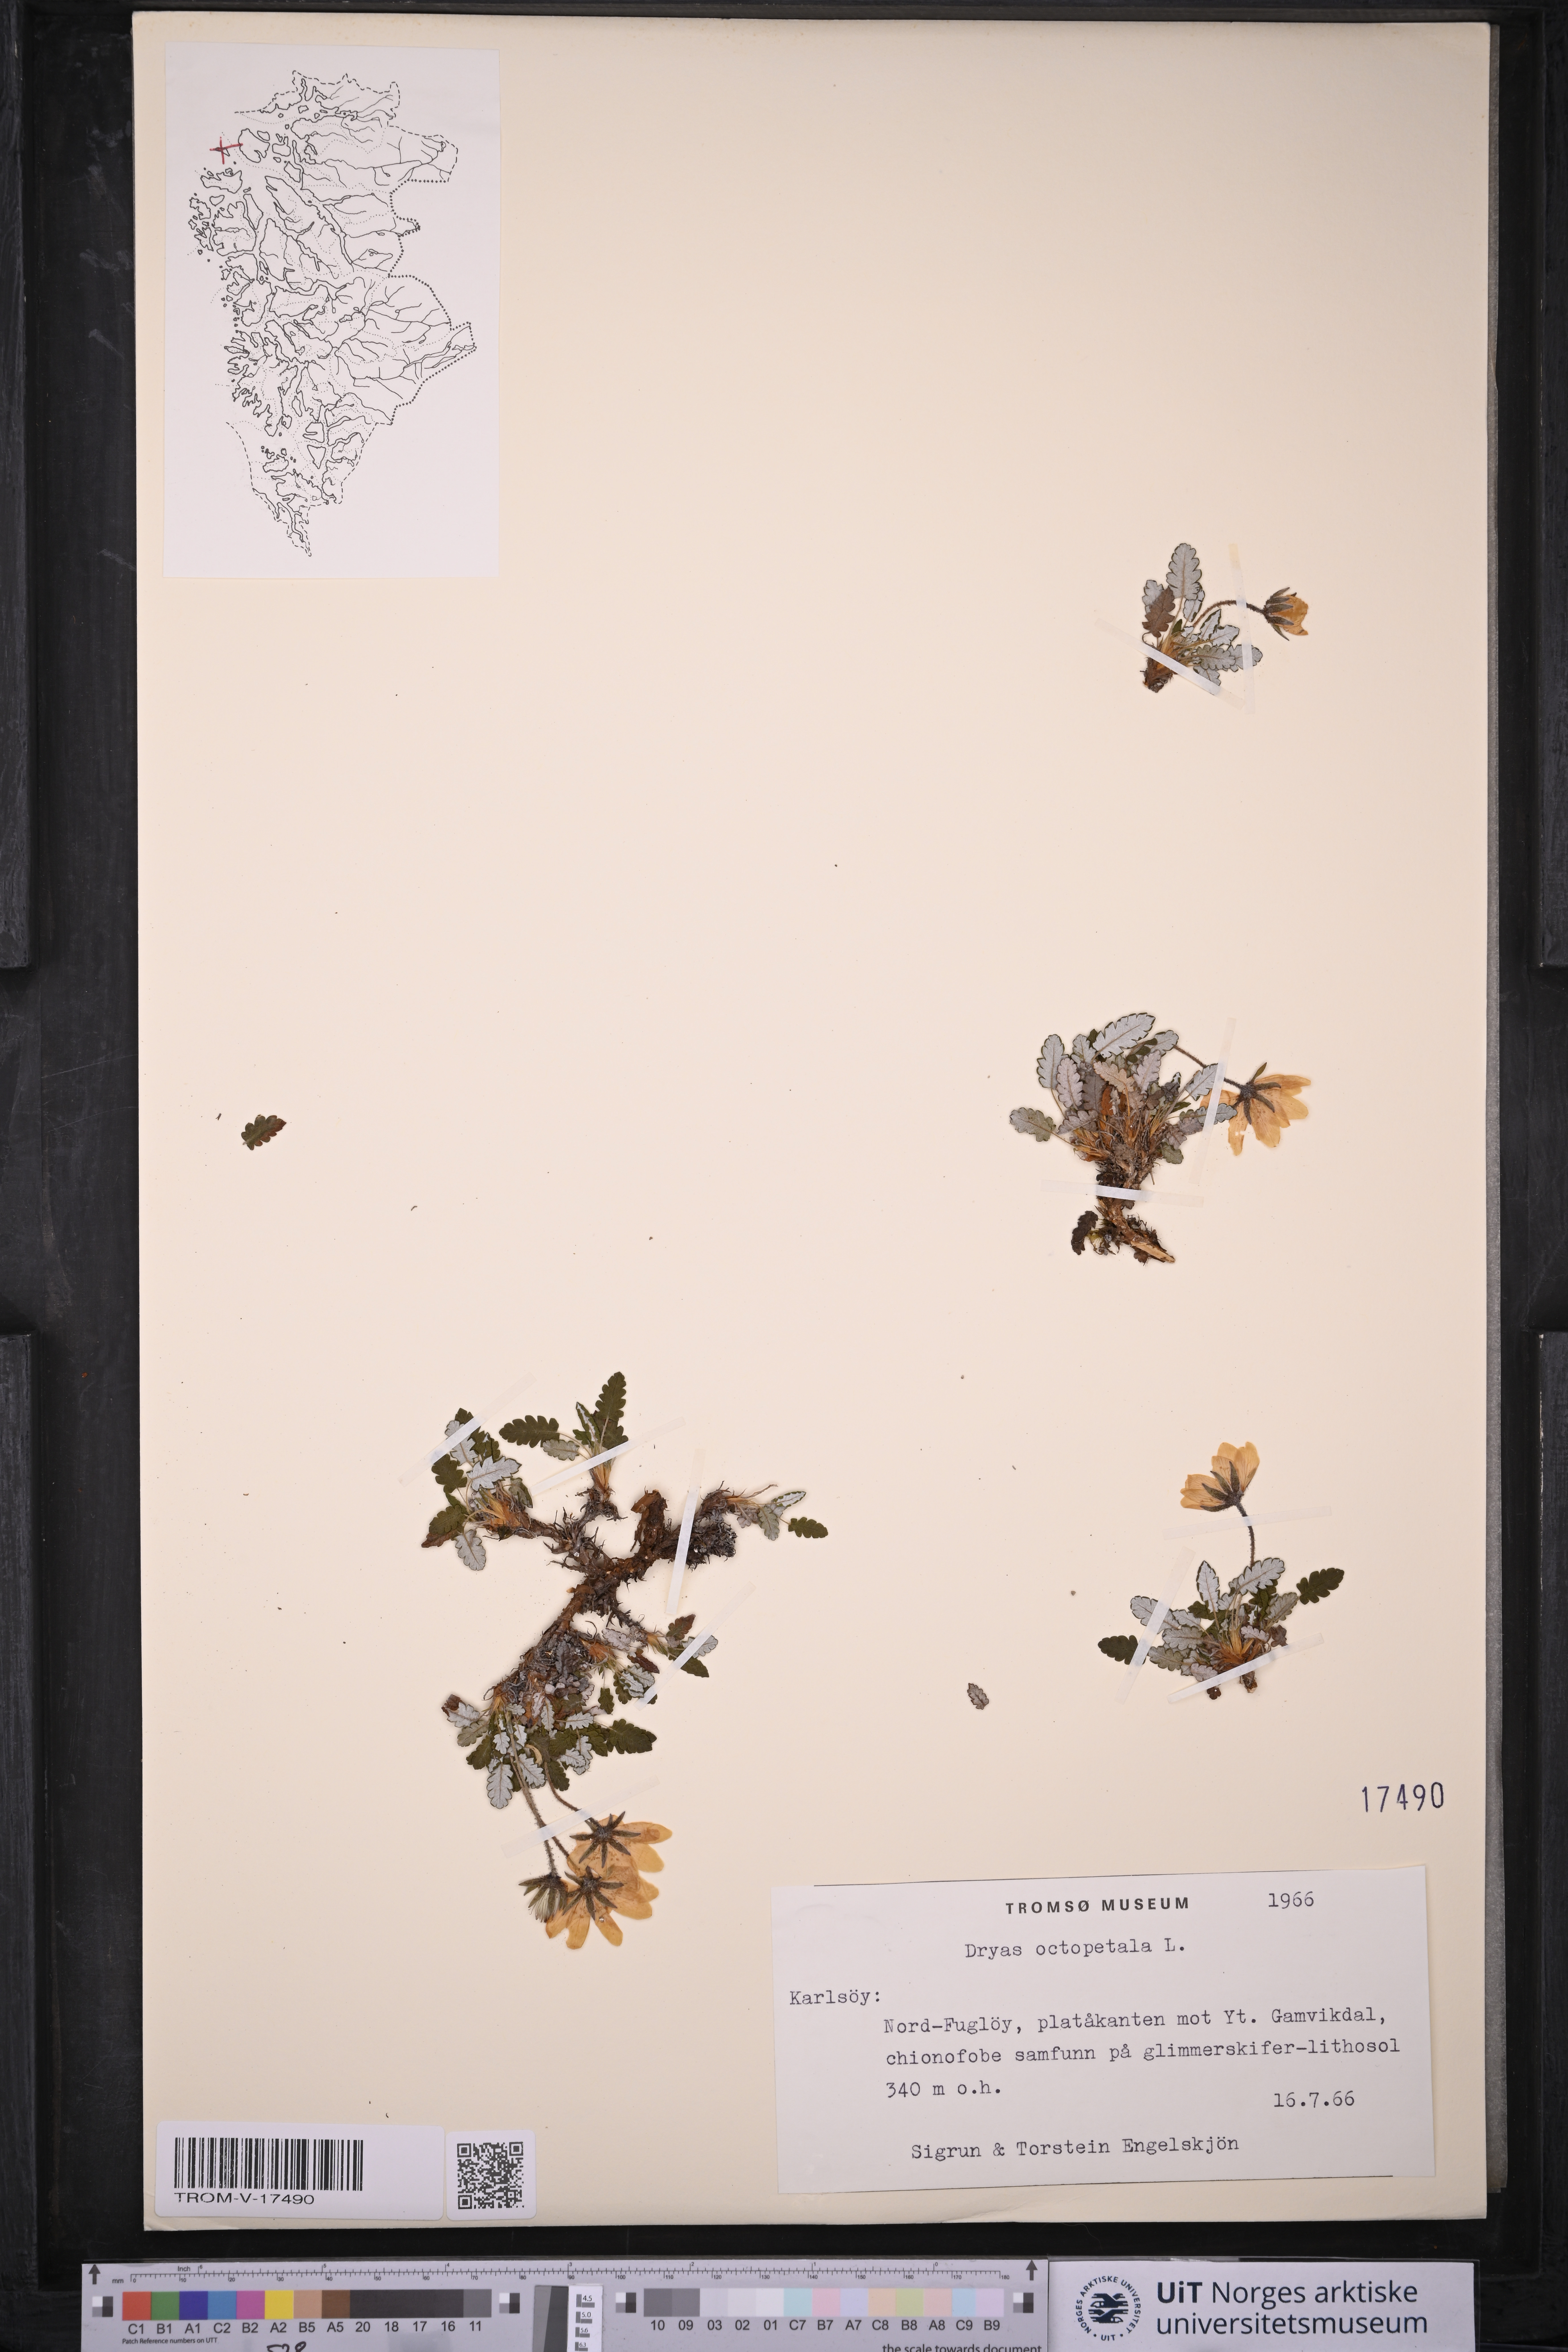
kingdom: Plantae
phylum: Tracheophyta
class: Magnoliopsida
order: Rosales
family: Rosaceae
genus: Dryas
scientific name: Dryas octopetala
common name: Eight-petal mountain-avens
